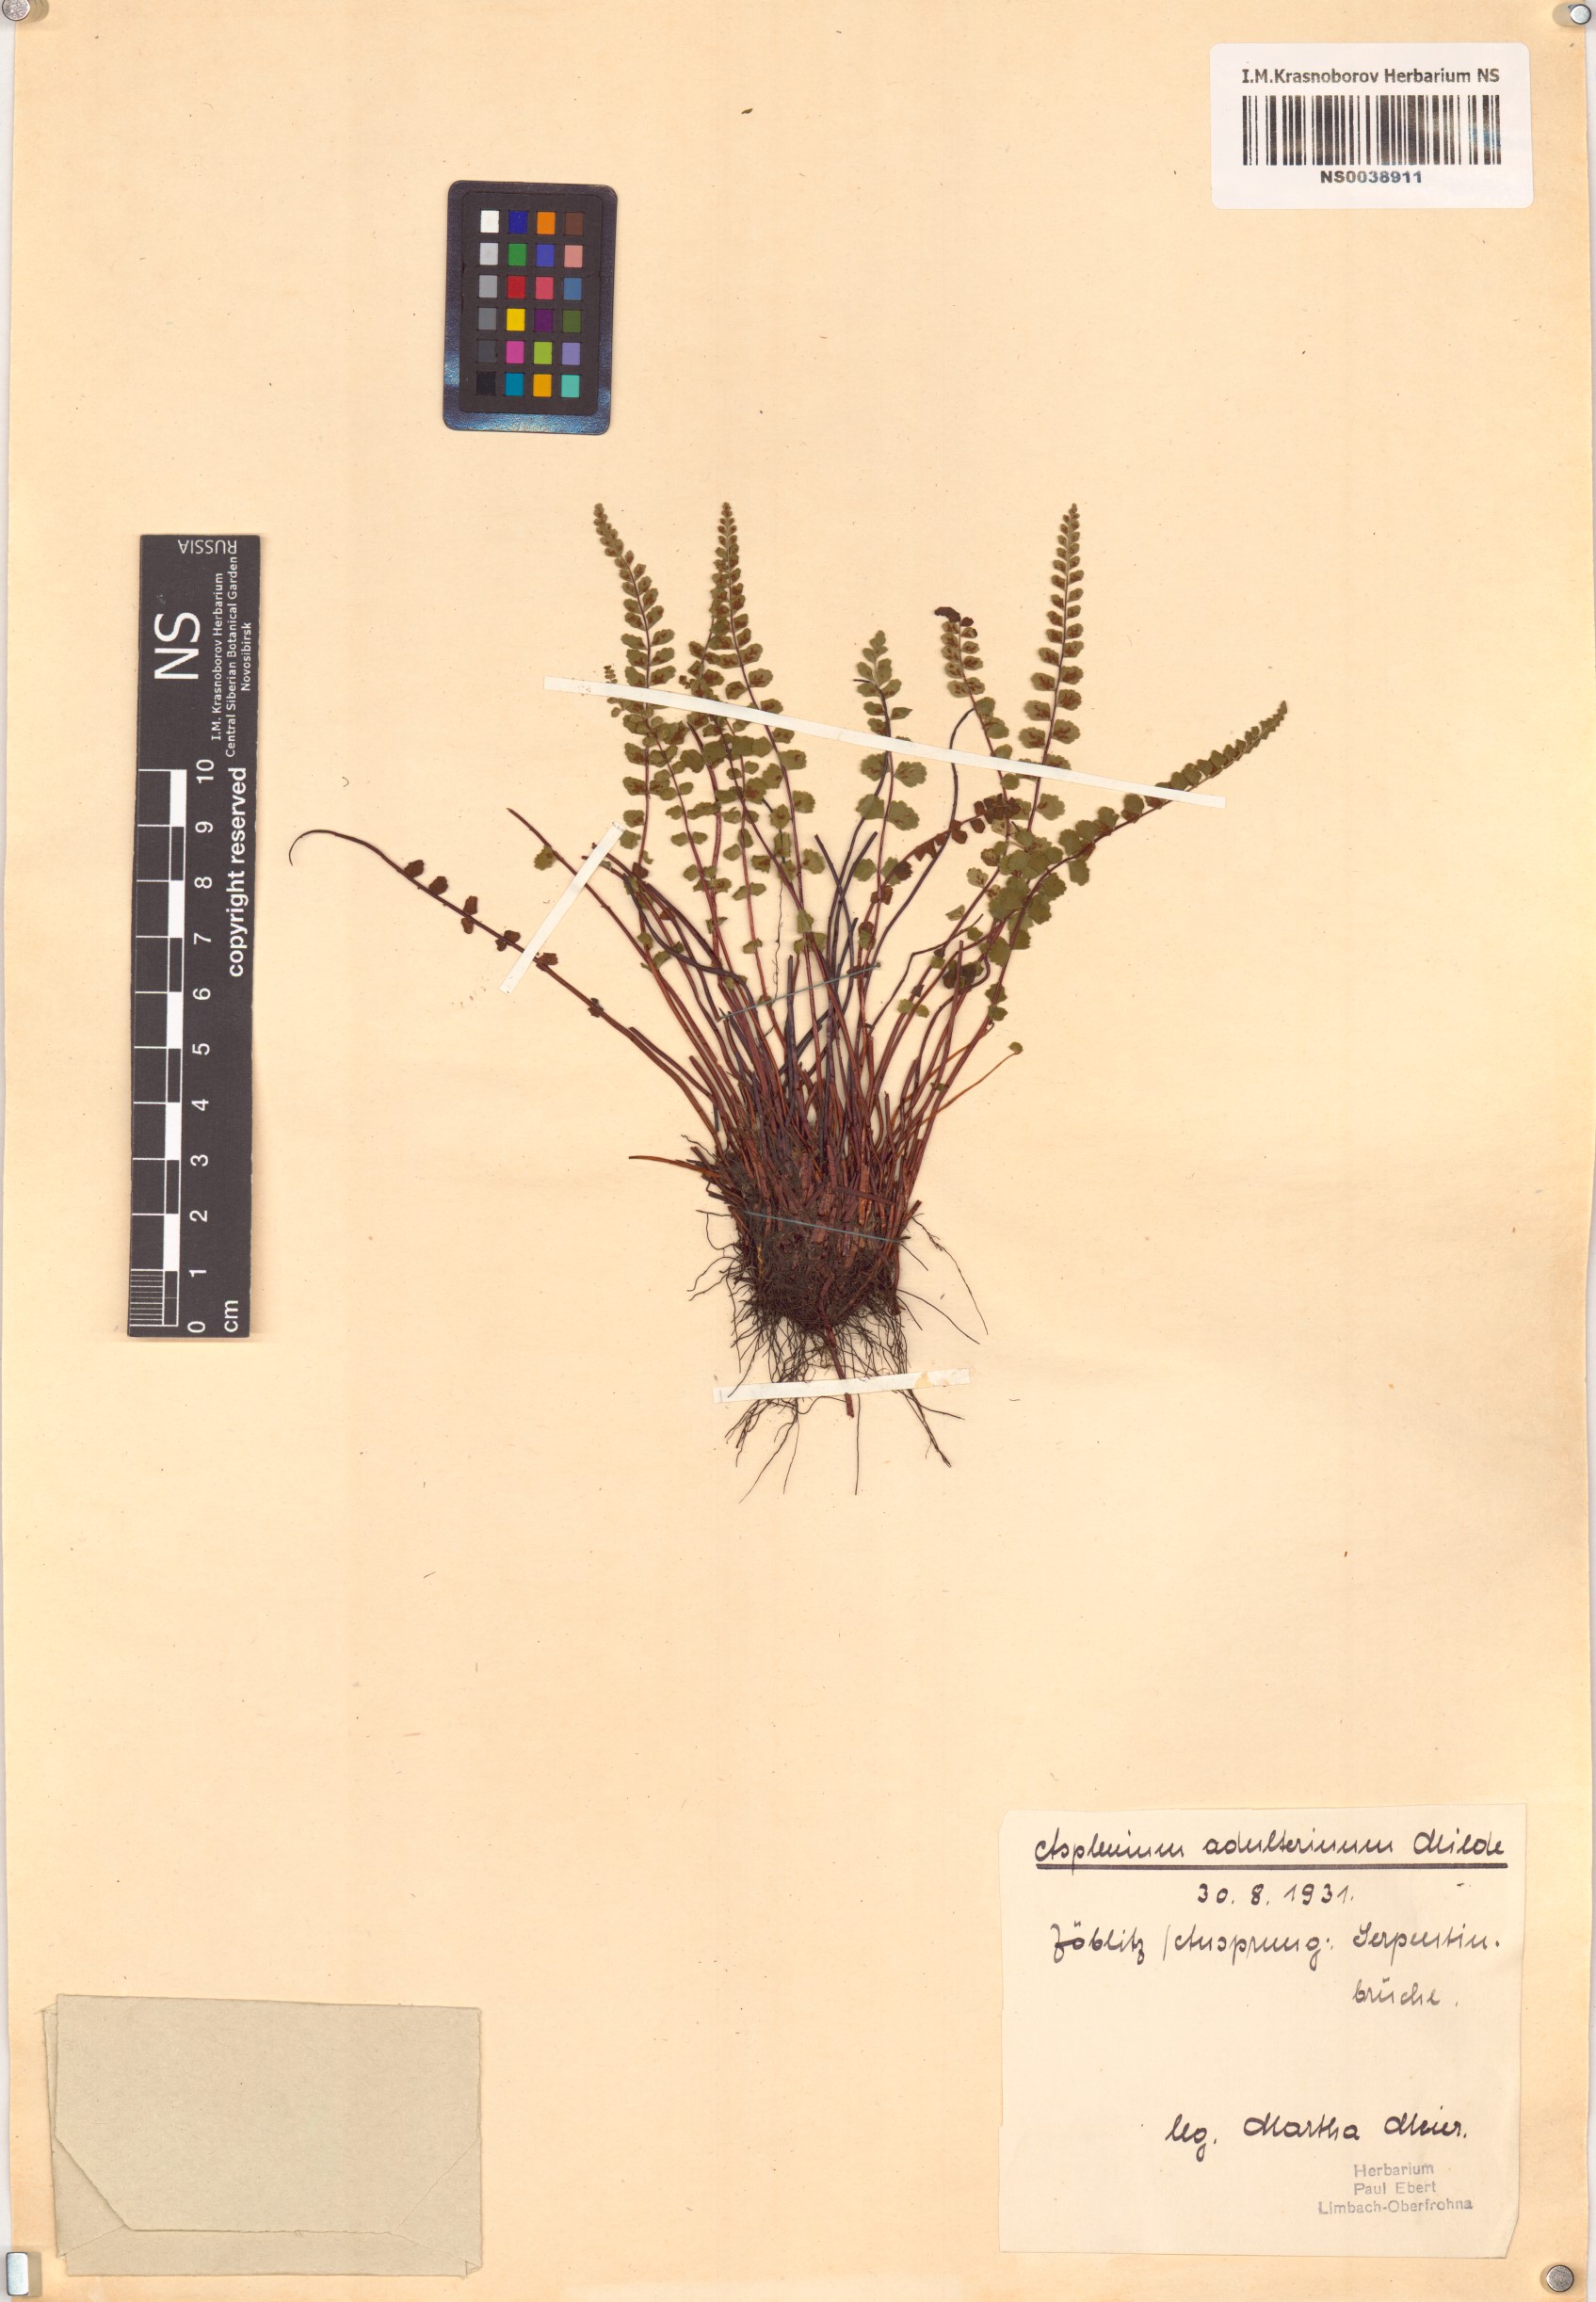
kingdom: Plantae
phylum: Tracheophyta
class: Polypodiopsida
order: Polypodiales
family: Aspleniaceae
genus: Asplenium
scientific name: Asplenium adulterinum
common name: Adulterated spleenwort
